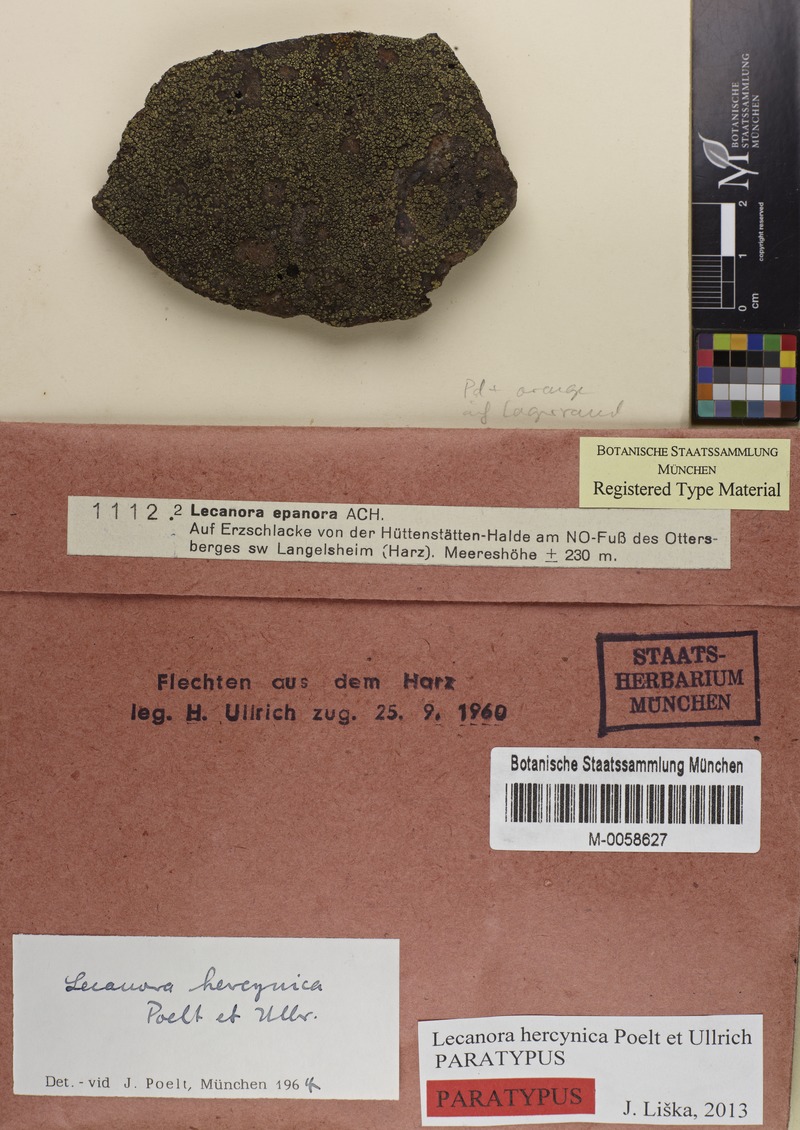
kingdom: Fungi
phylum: Ascomycota
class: Lecanoromycetes
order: Lecanorales
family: Lecanoraceae
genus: Lecanora
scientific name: Lecanora subaurea
